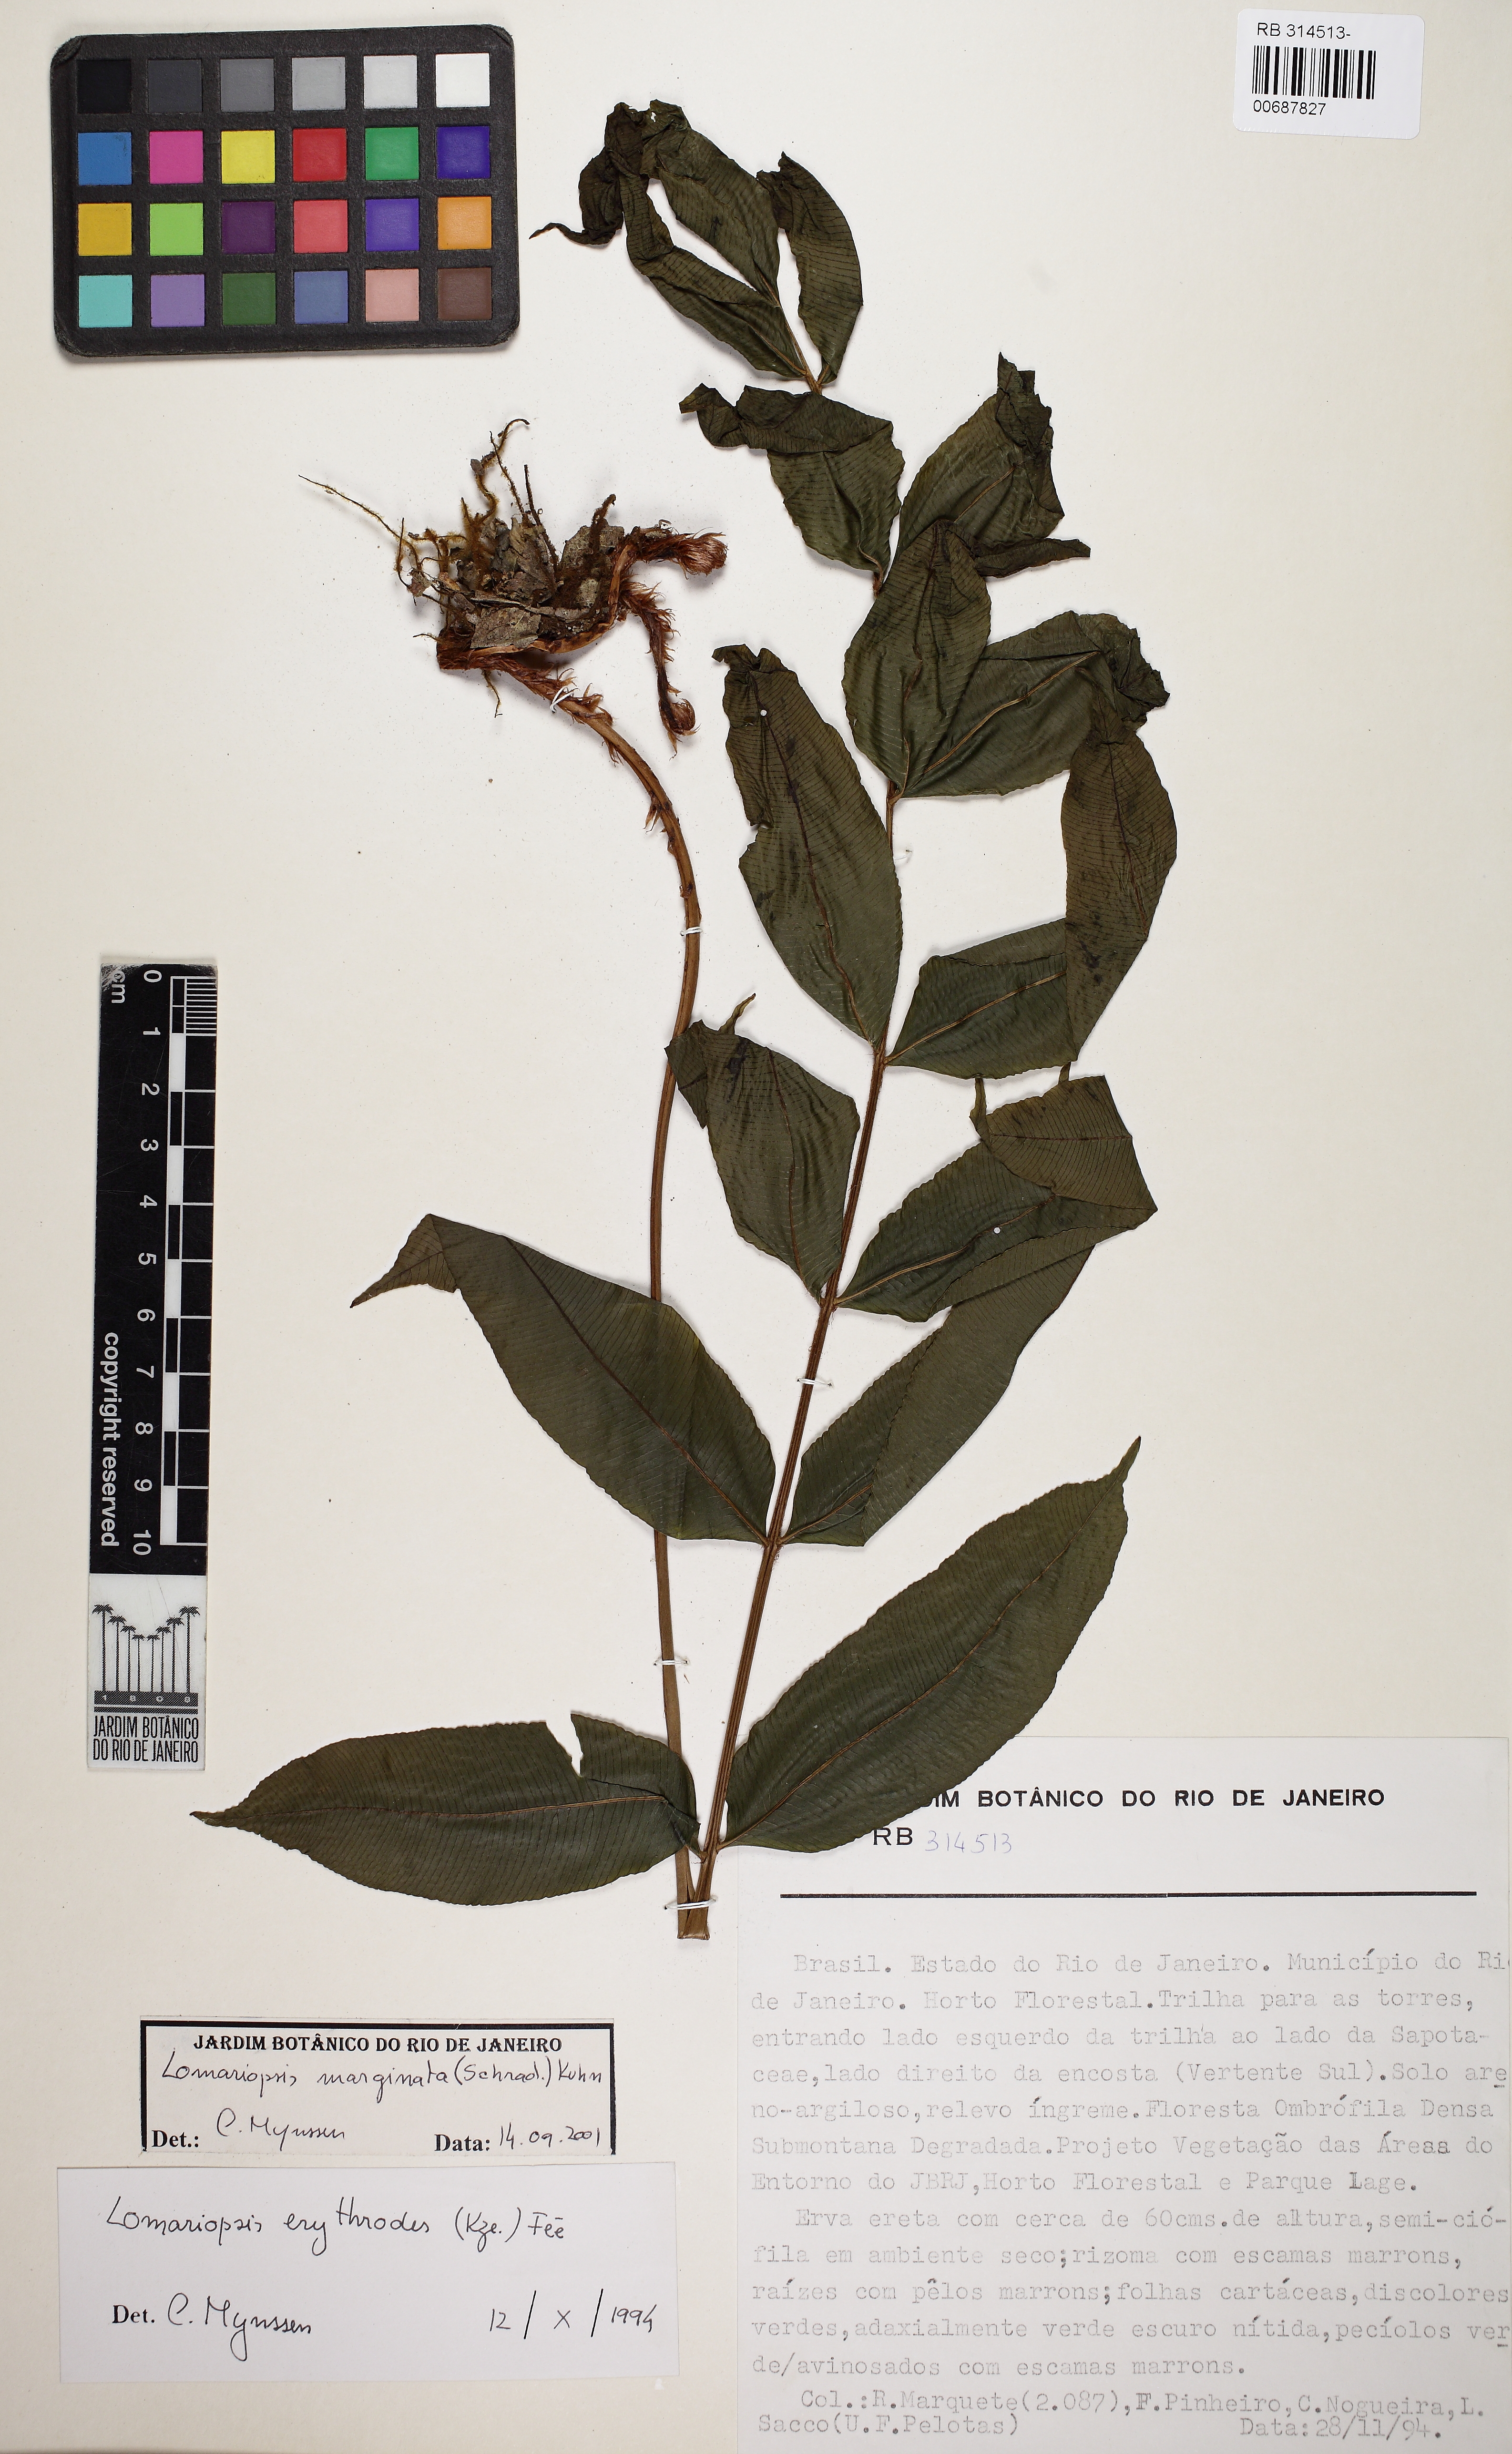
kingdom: Plantae
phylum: Tracheophyta
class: Polypodiopsida
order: Polypodiales
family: Lomariopsidaceae
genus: Lomariopsis
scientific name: Lomariopsis marginata
